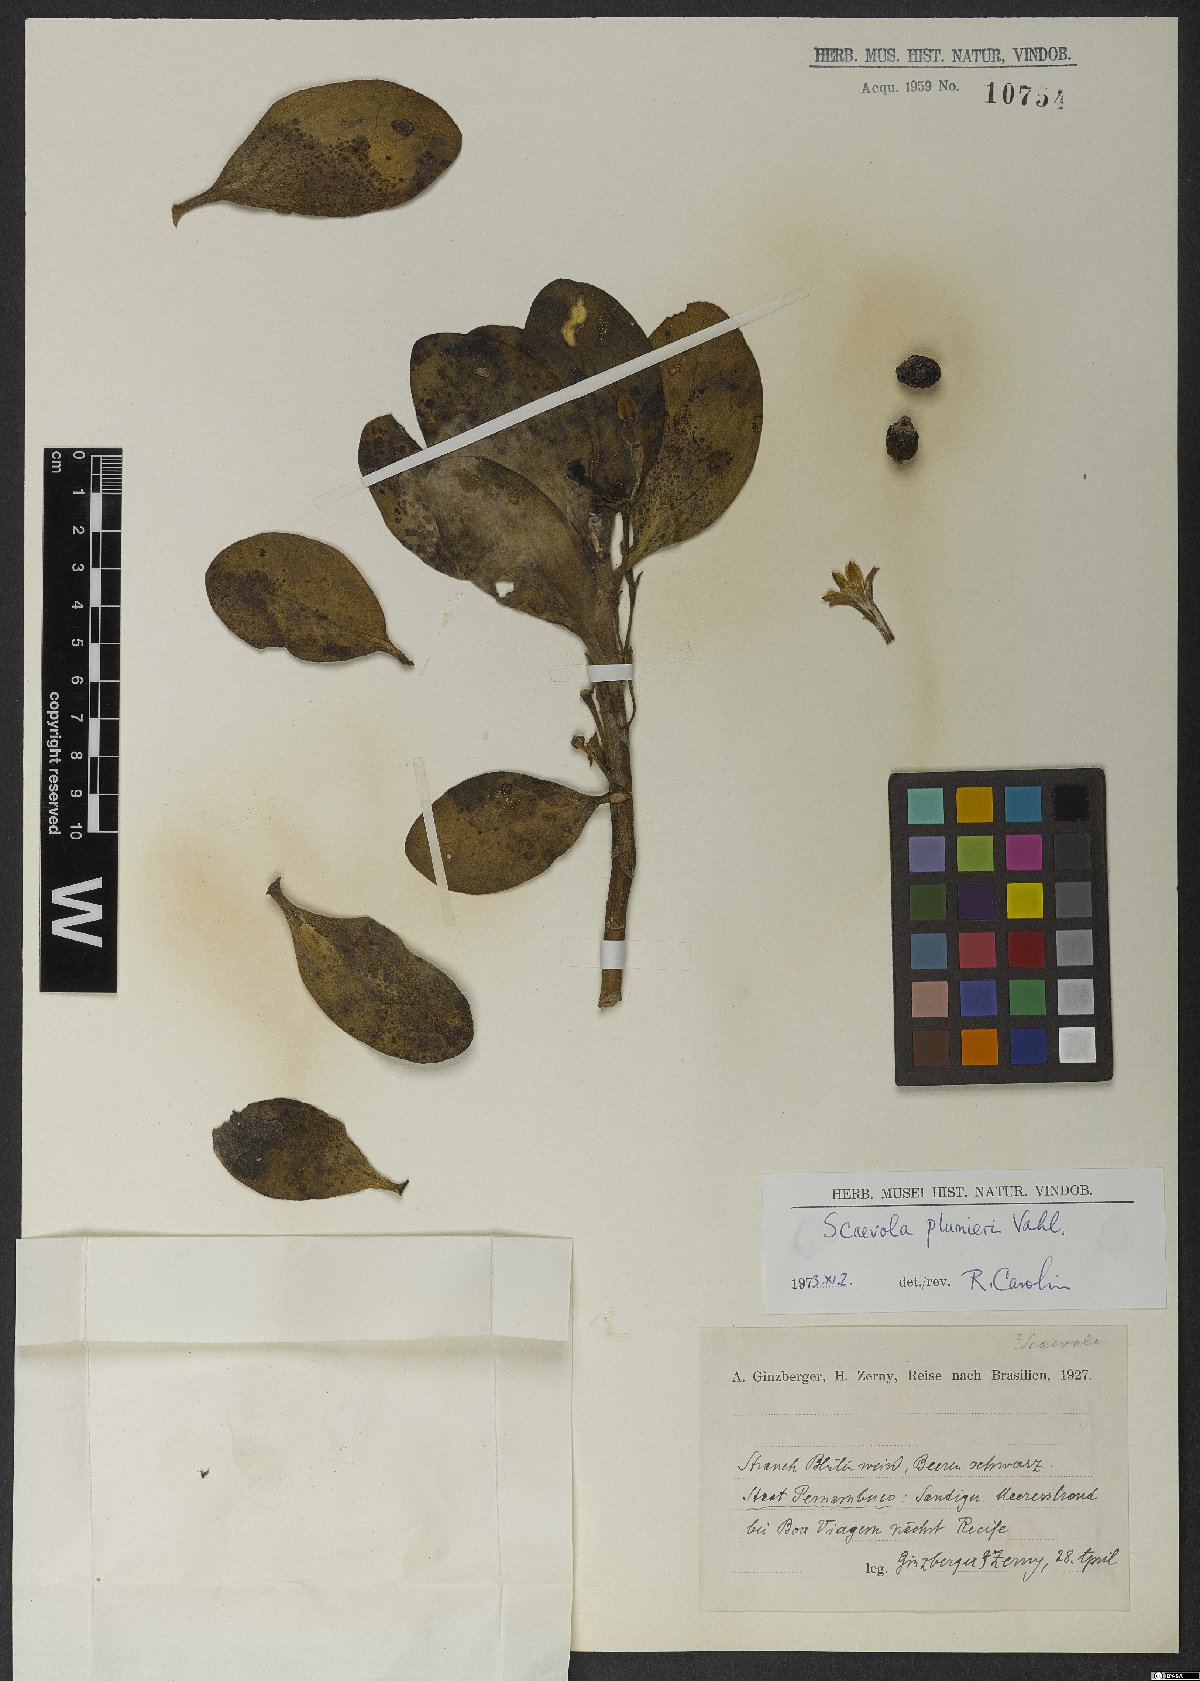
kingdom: Plantae
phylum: Tracheophyta
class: Magnoliopsida
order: Asterales
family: Goodeniaceae
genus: Scaevola
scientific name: Scaevola plumieri
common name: Gull feed
